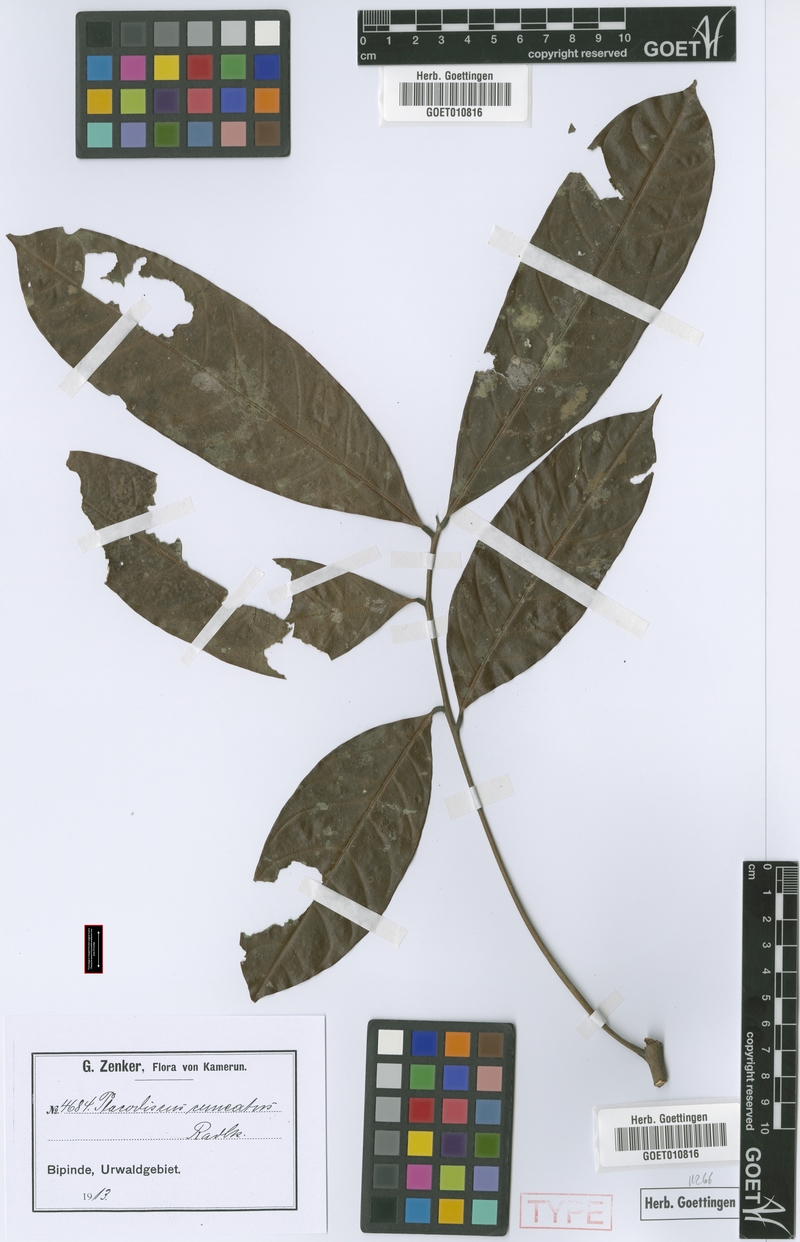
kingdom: Plantae
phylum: Tracheophyta
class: Magnoliopsida
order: Sapindales
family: Sapindaceae
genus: Placodiscus
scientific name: Placodiscus angustifolius
